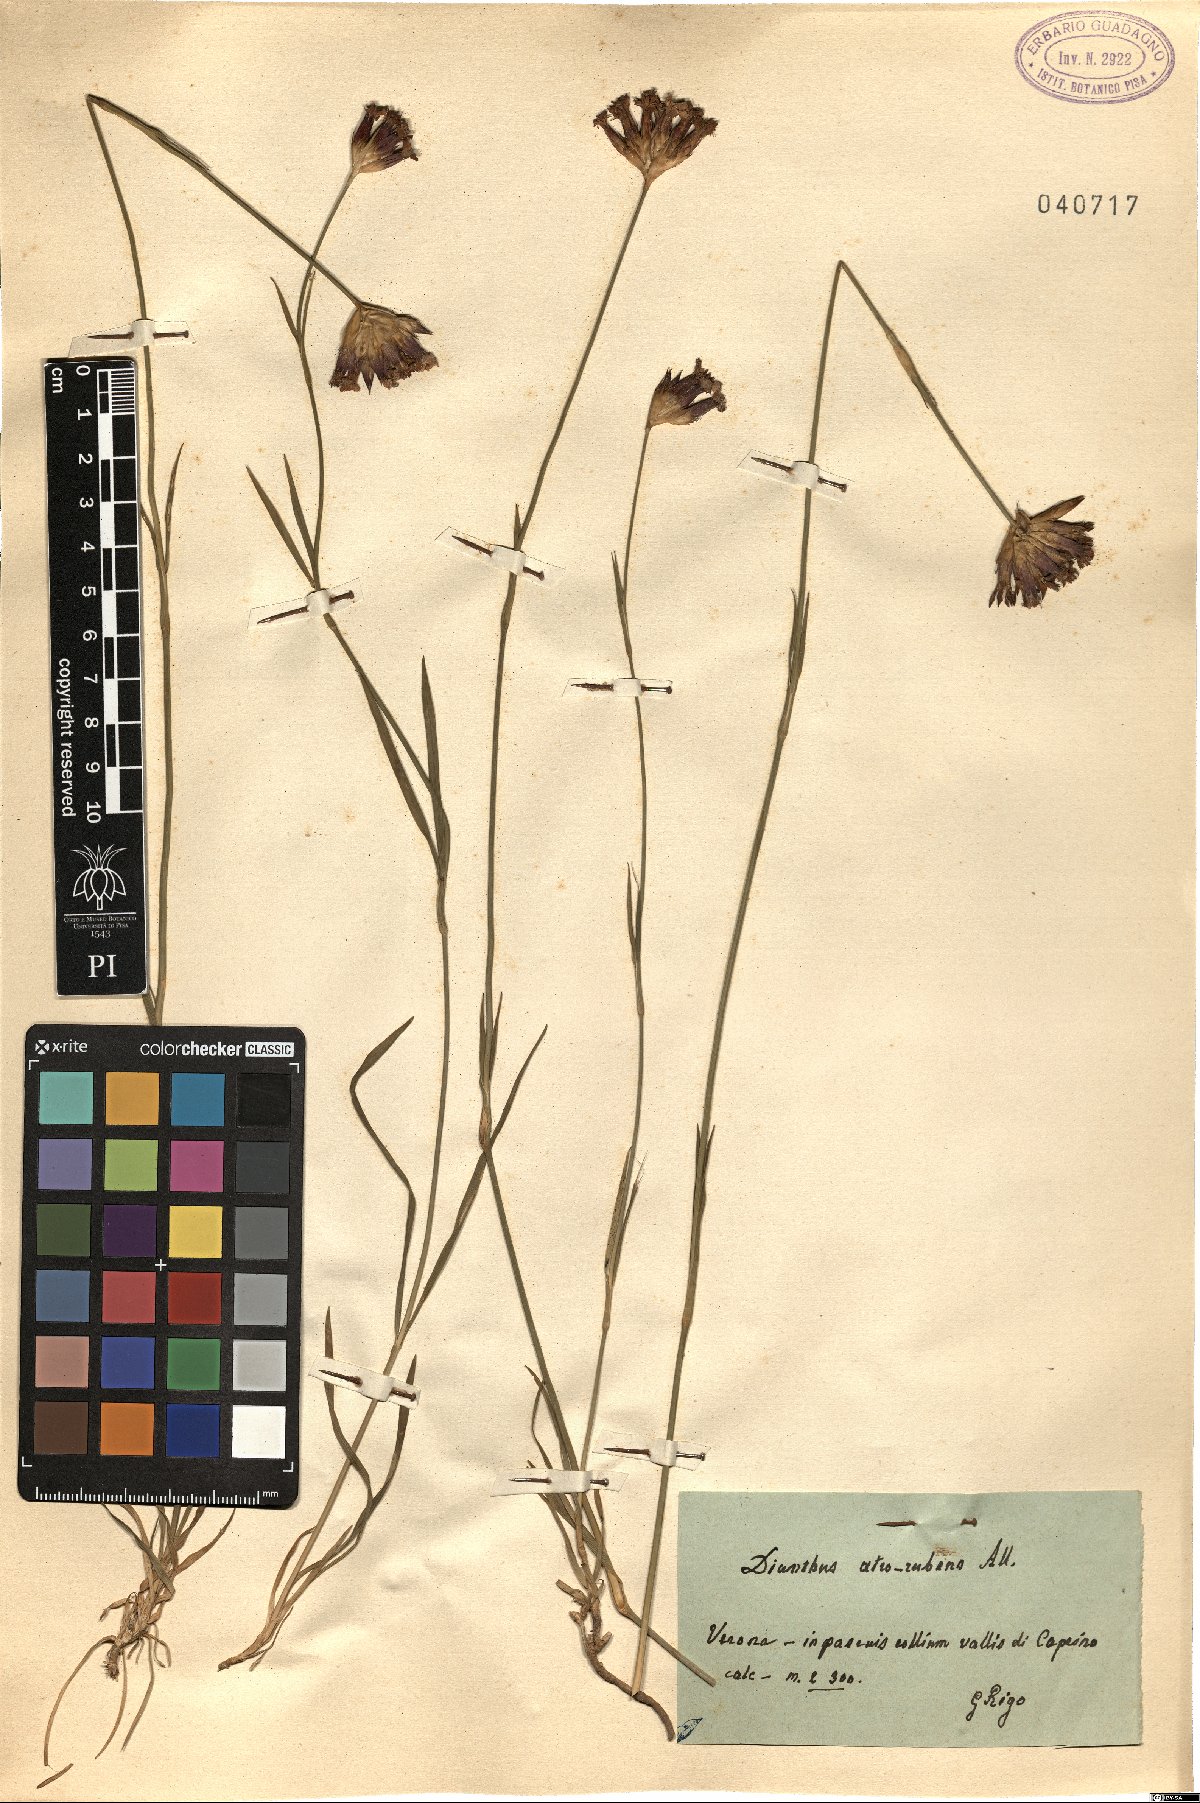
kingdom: Plantae
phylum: Tracheophyta
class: Magnoliopsida
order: Caryophyllales
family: Caryophyllaceae
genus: Dianthus
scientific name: Dianthus carthusianorum
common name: Carthusian pink
